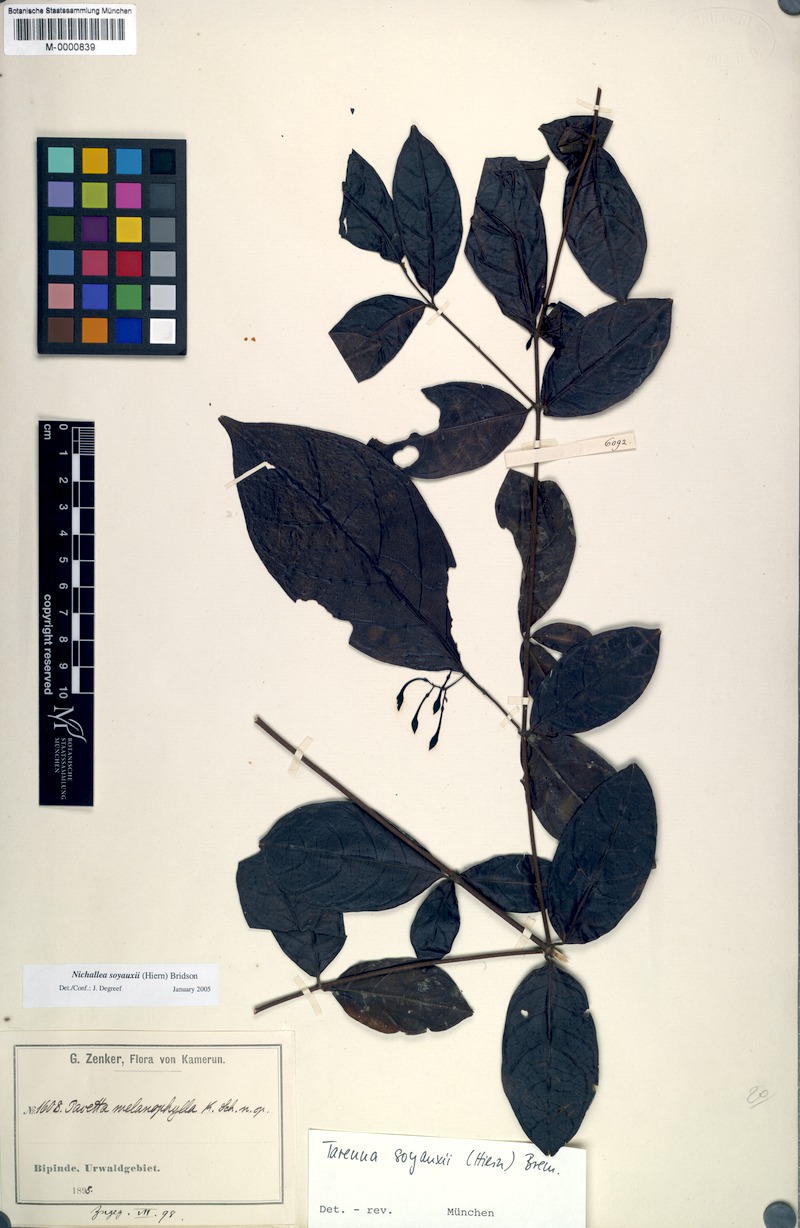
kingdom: Plantae
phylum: Tracheophyta
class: Magnoliopsida
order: Gentianales
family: Rubiaceae
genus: Nichallea
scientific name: Nichallea soyauxii
